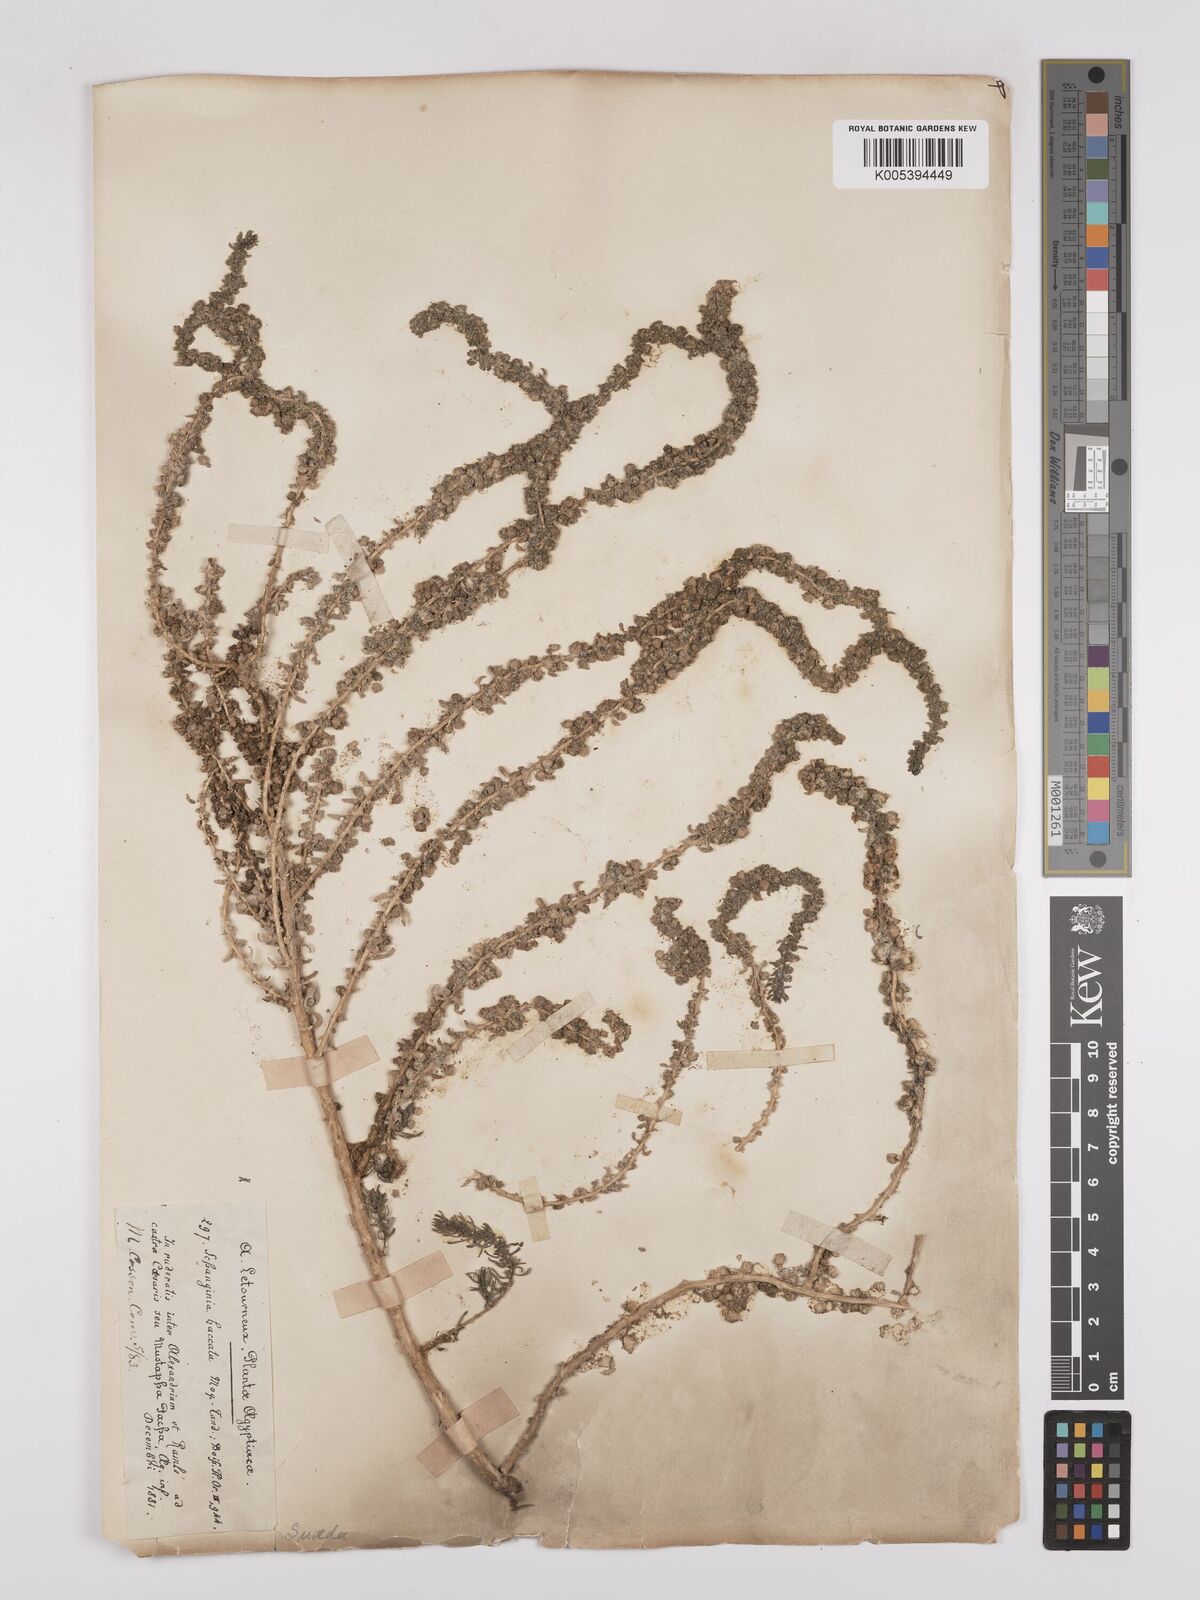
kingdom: Plantae
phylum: Tracheophyta
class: Magnoliopsida
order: Caryophyllales
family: Amaranthaceae
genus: Suaeda
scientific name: Suaeda aegyptiaca
